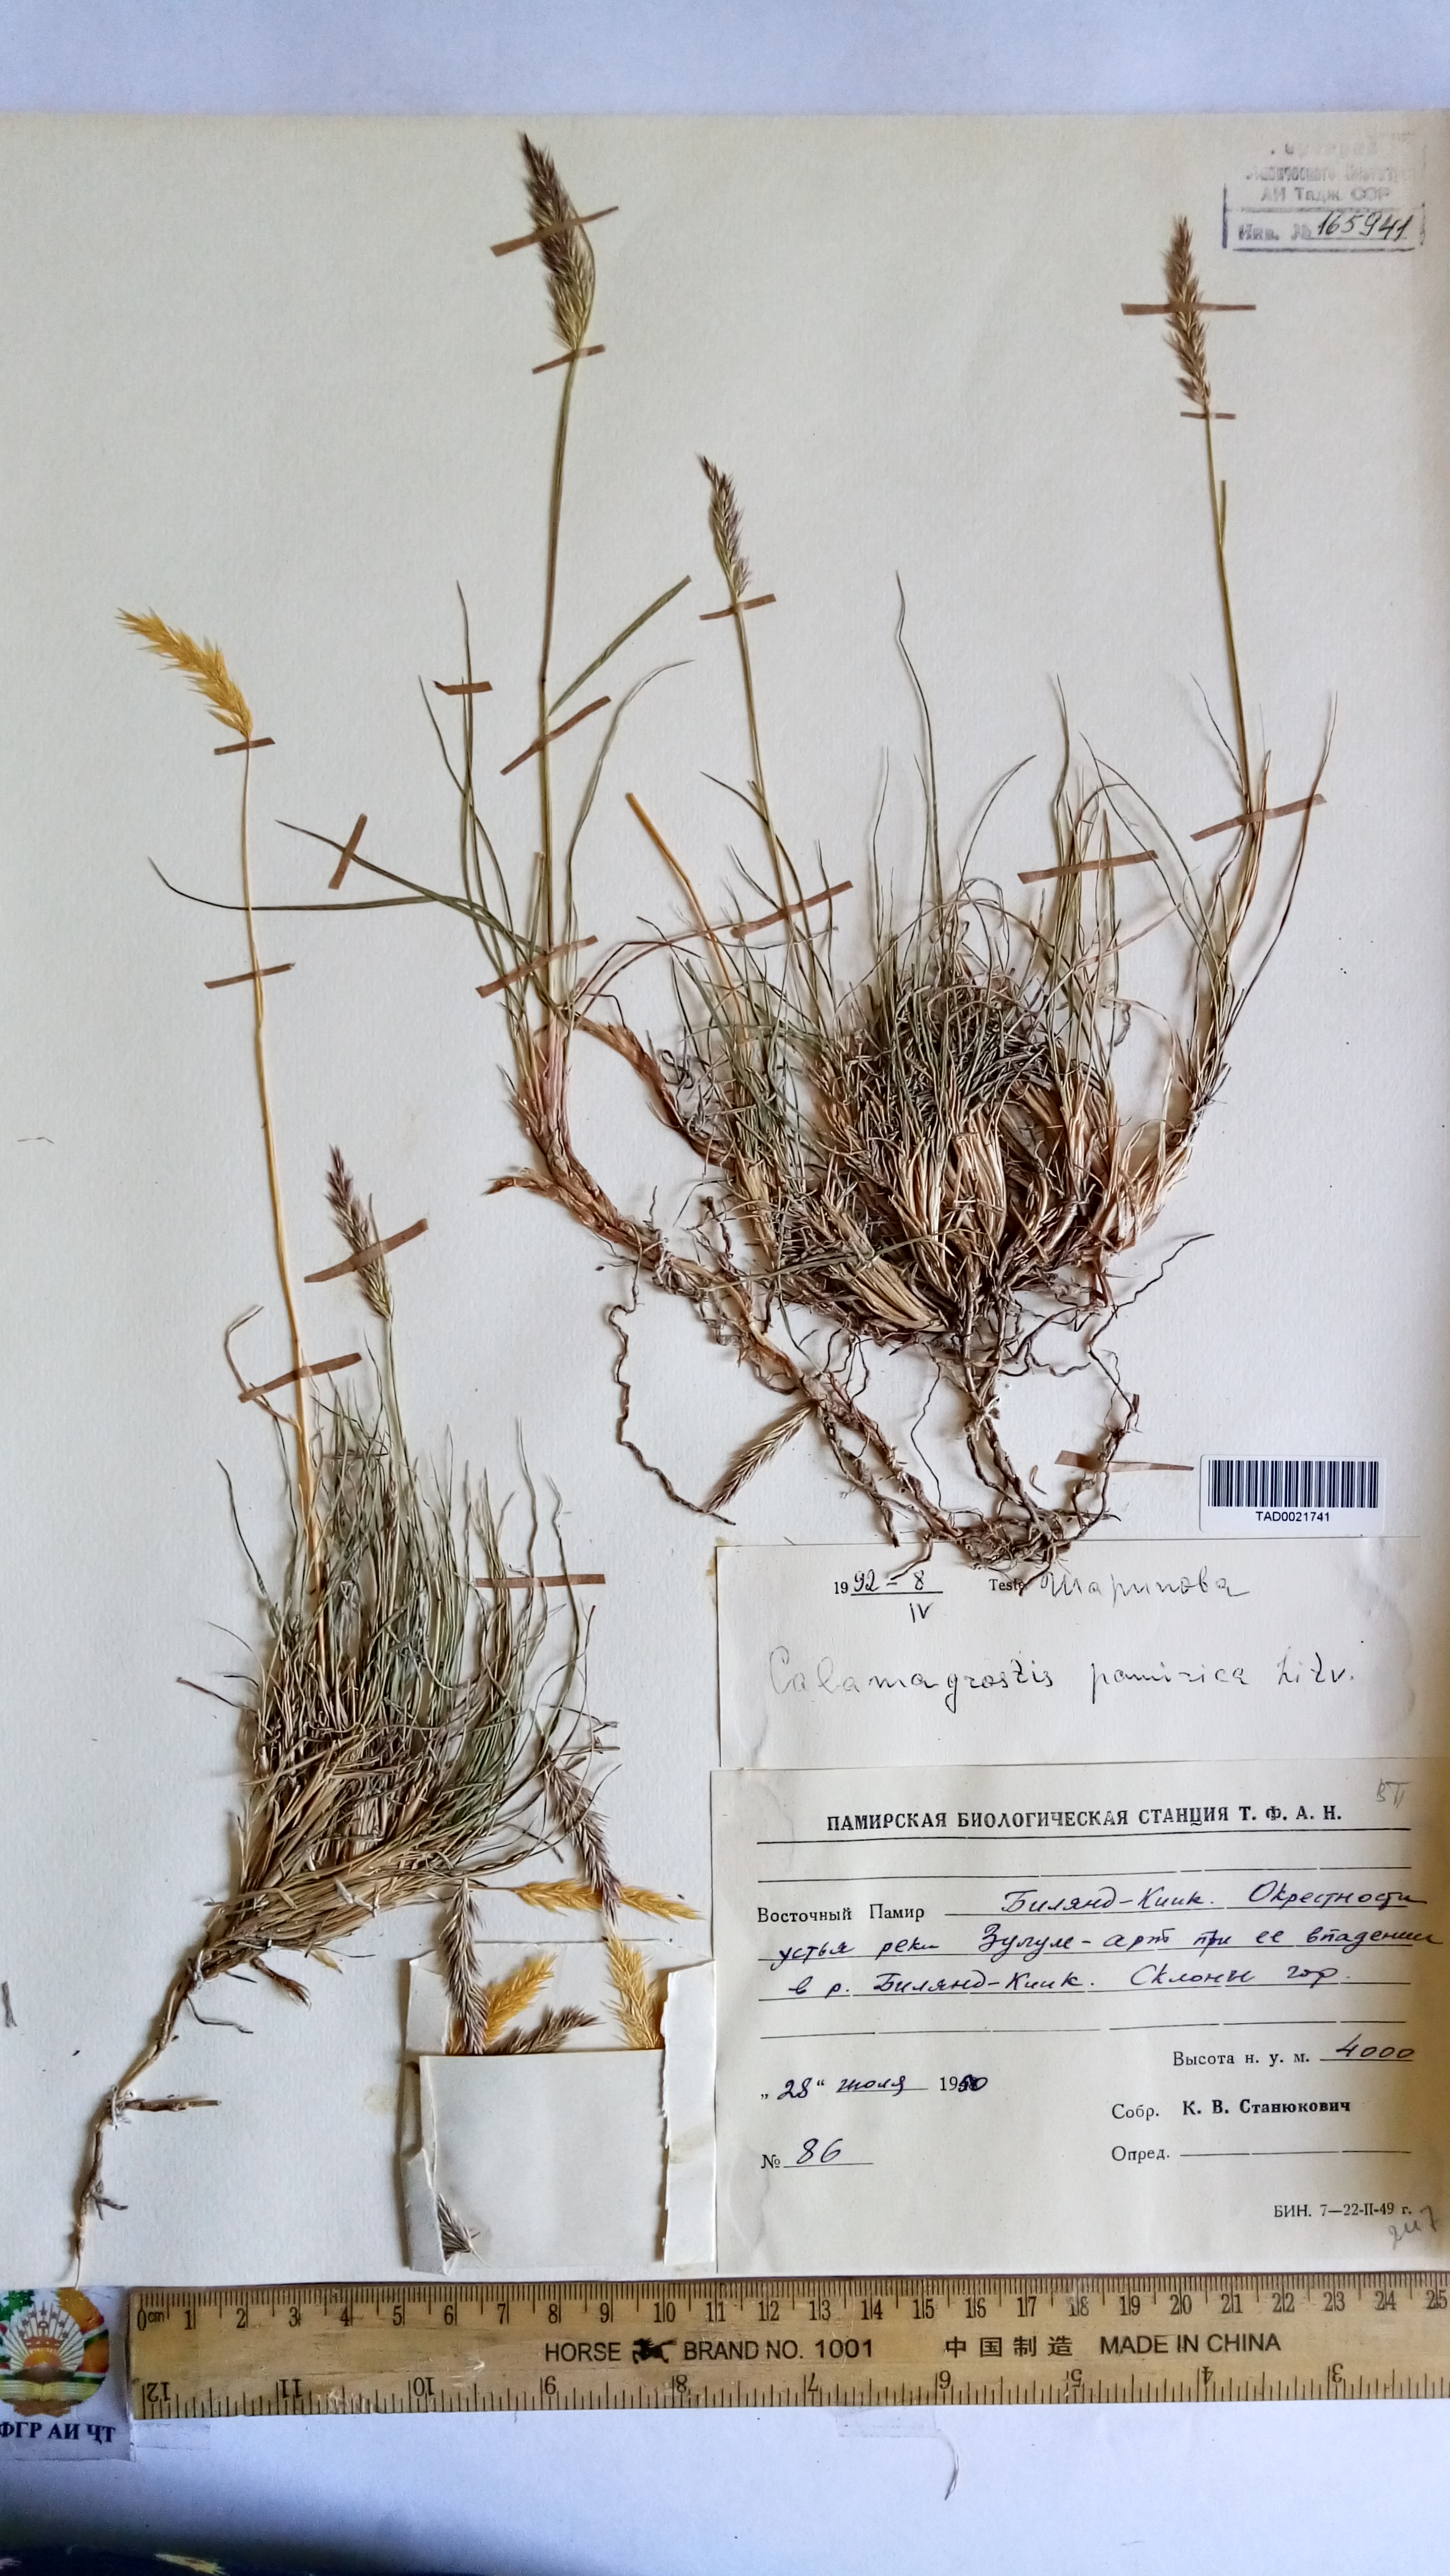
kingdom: Plantae
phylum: Tracheophyta
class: Liliopsida
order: Poales
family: Poaceae
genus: Calamagrostis
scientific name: Calamagrostis holciformis
